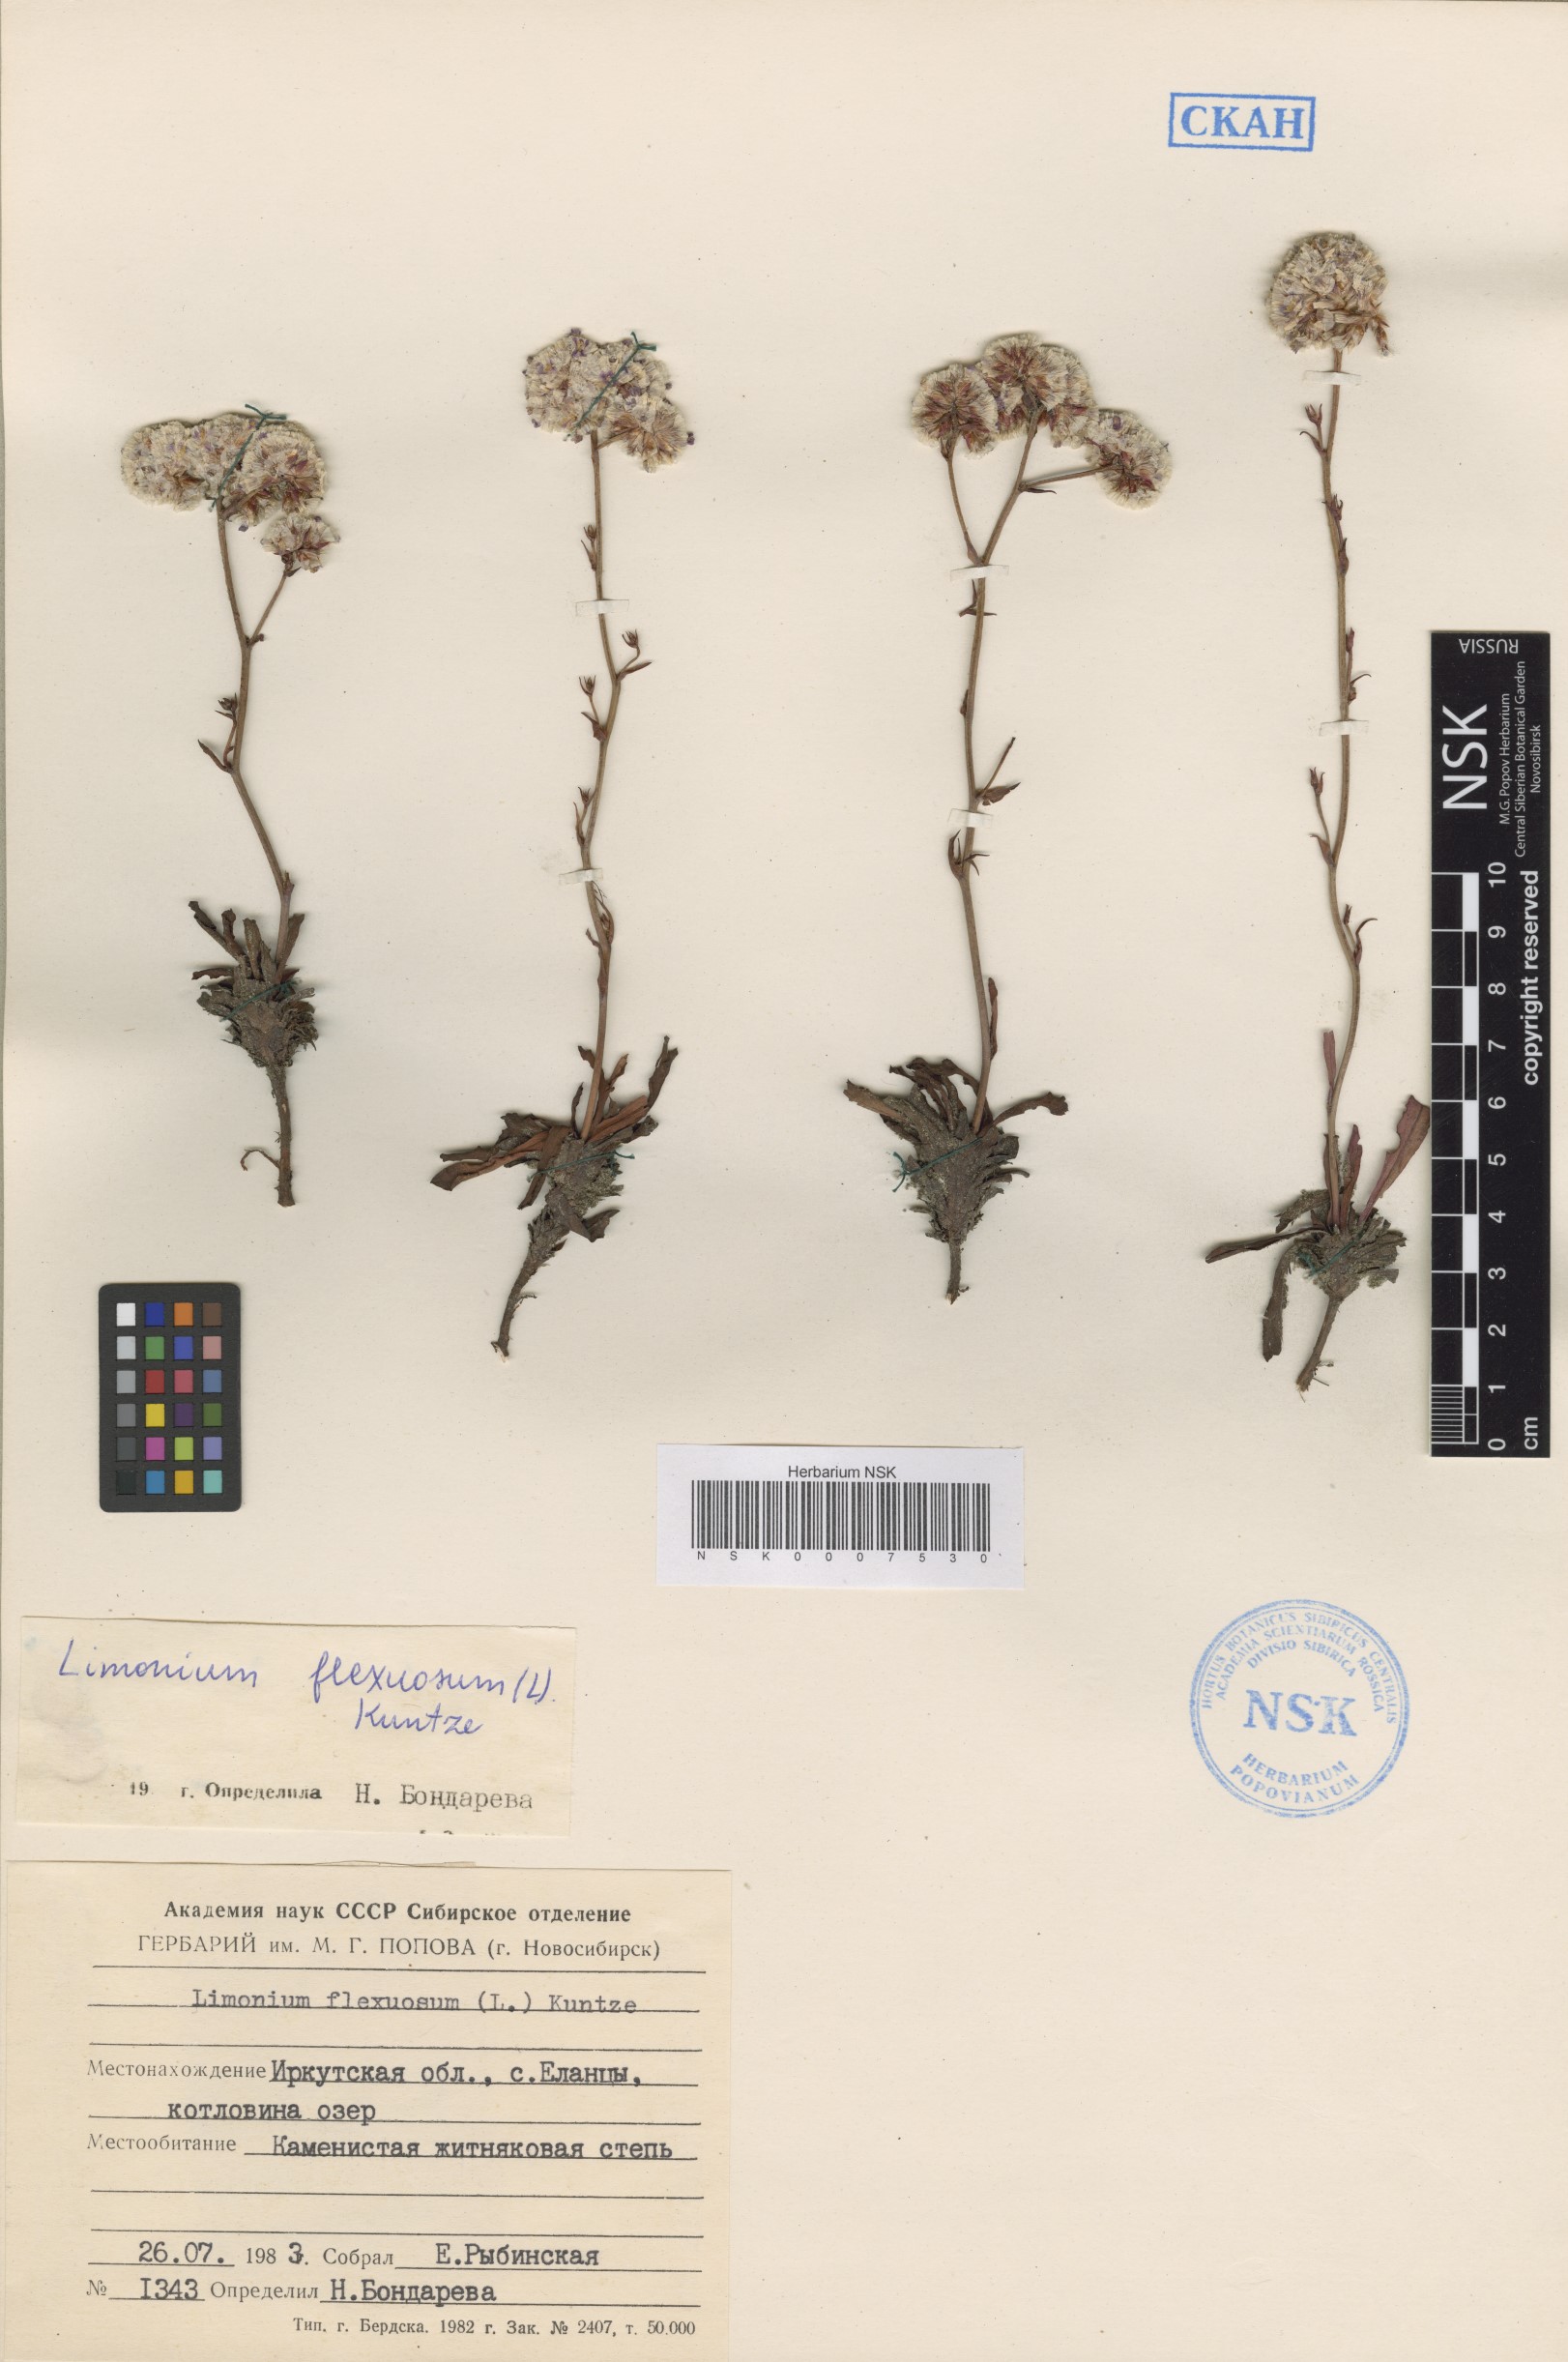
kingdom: Plantae
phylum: Tracheophyta
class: Magnoliopsida
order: Caryophyllales
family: Plumbaginaceae
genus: Limonium
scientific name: Limonium flexuosum
